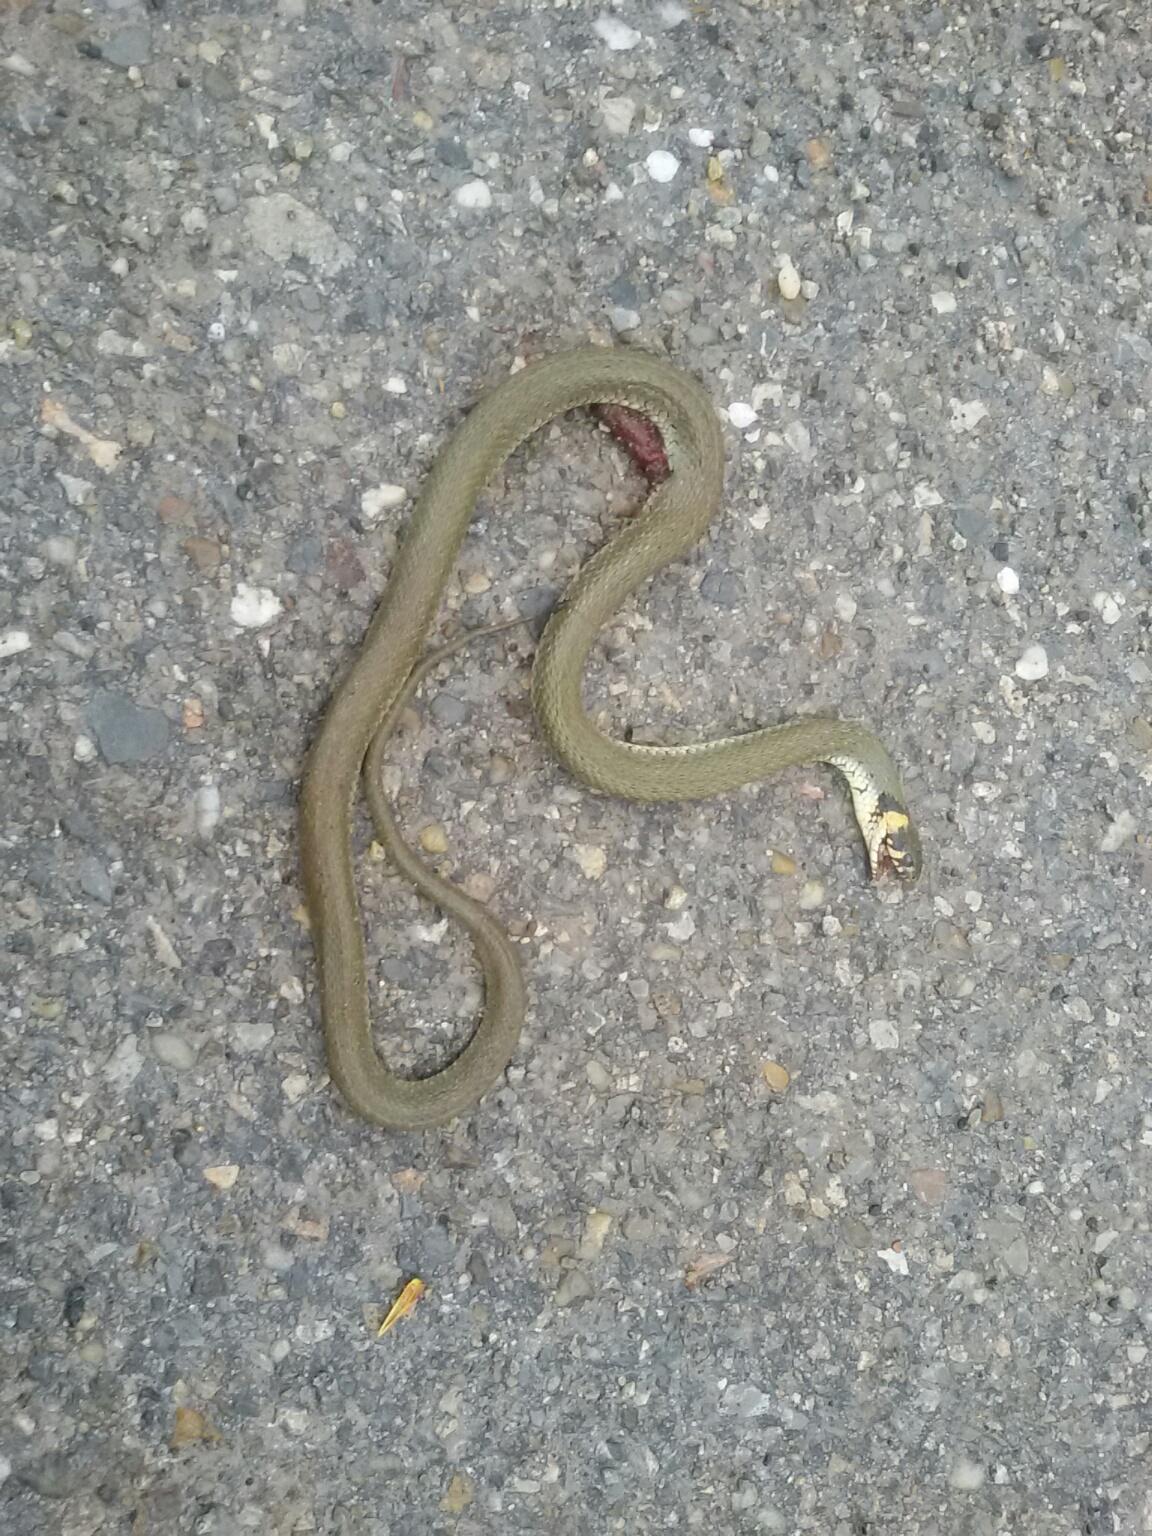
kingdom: Animalia
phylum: Chordata
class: Squamata
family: Colubridae
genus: Natrix
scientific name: Natrix natrix
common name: Grass snake
